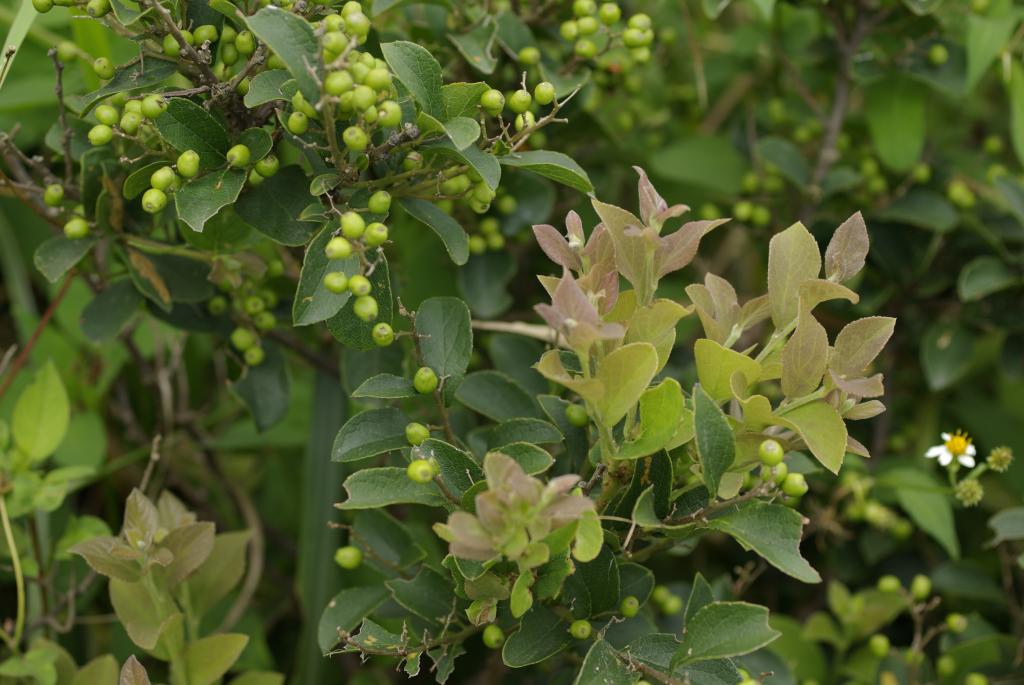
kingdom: Plantae
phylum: Tracheophyta
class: Magnoliopsida
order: Ericales
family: Symplocaceae
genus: Symplocos
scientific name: Symplocos paniculata
